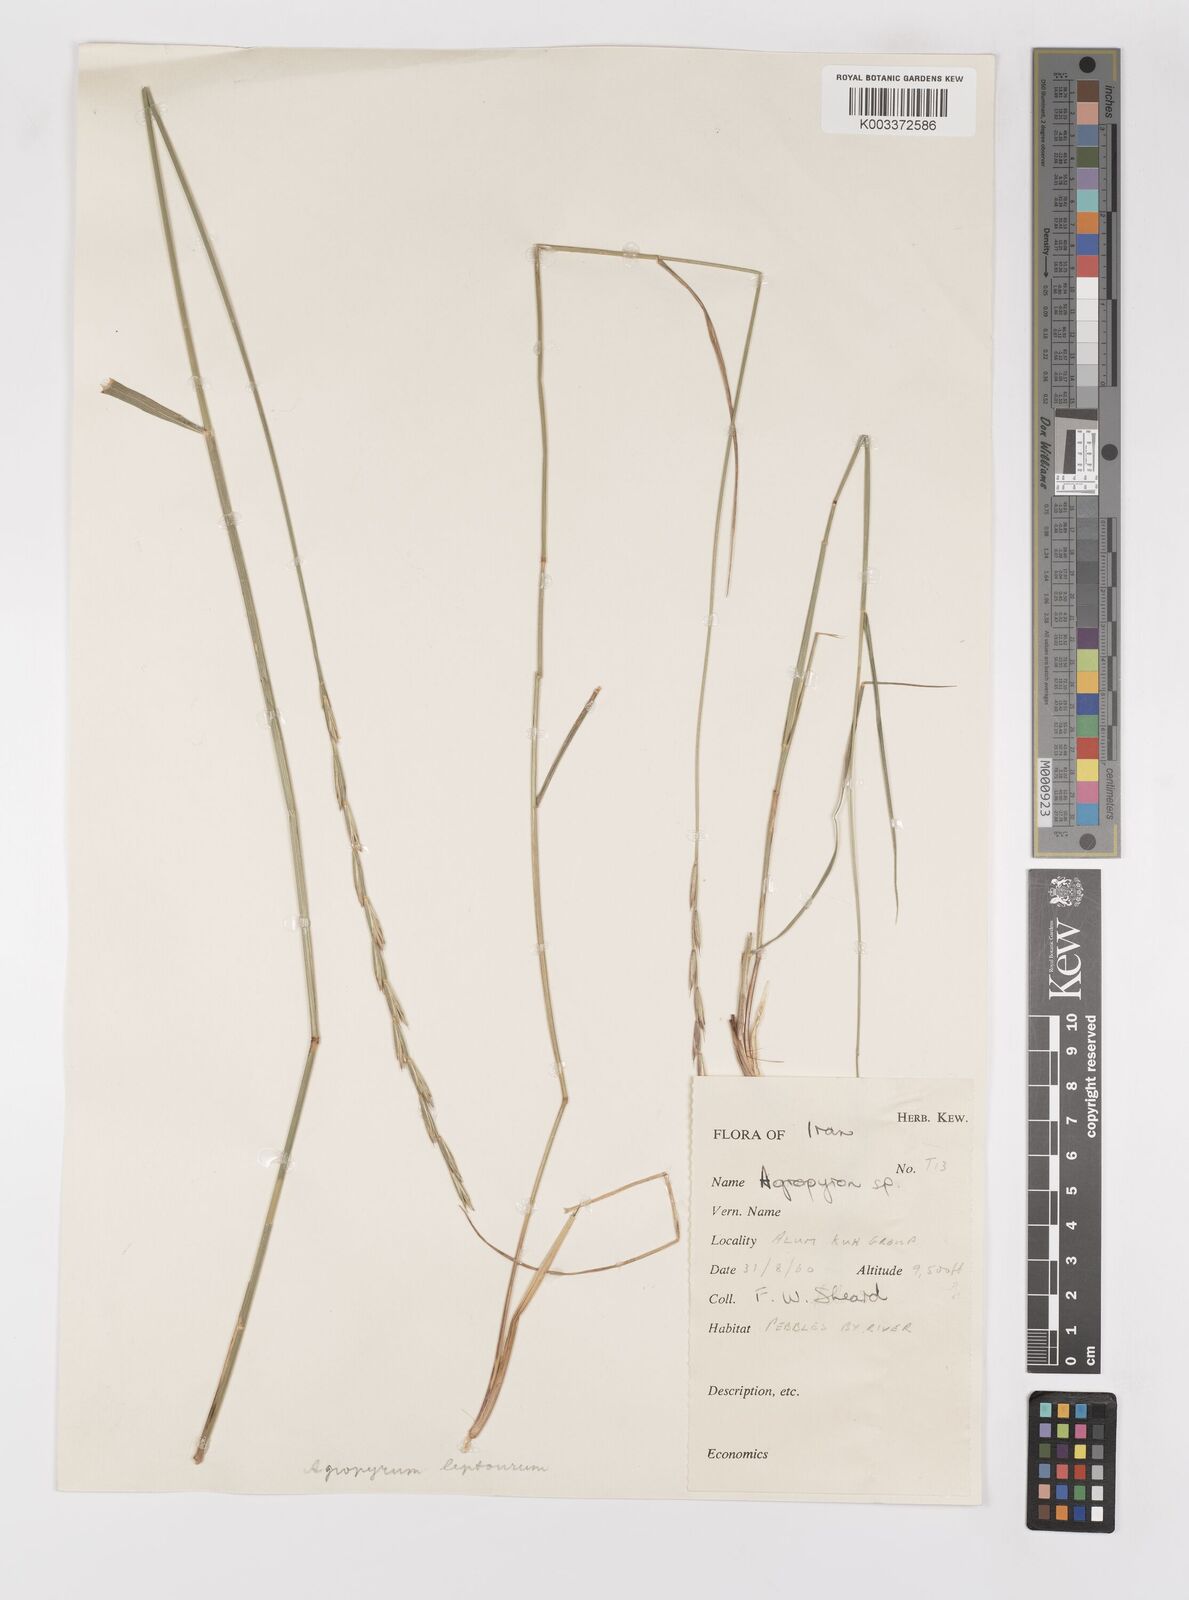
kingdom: Plantae
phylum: Tracheophyta
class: Liliopsida
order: Poales
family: Poaceae
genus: Elymus
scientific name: Elymus transhyrcanus
